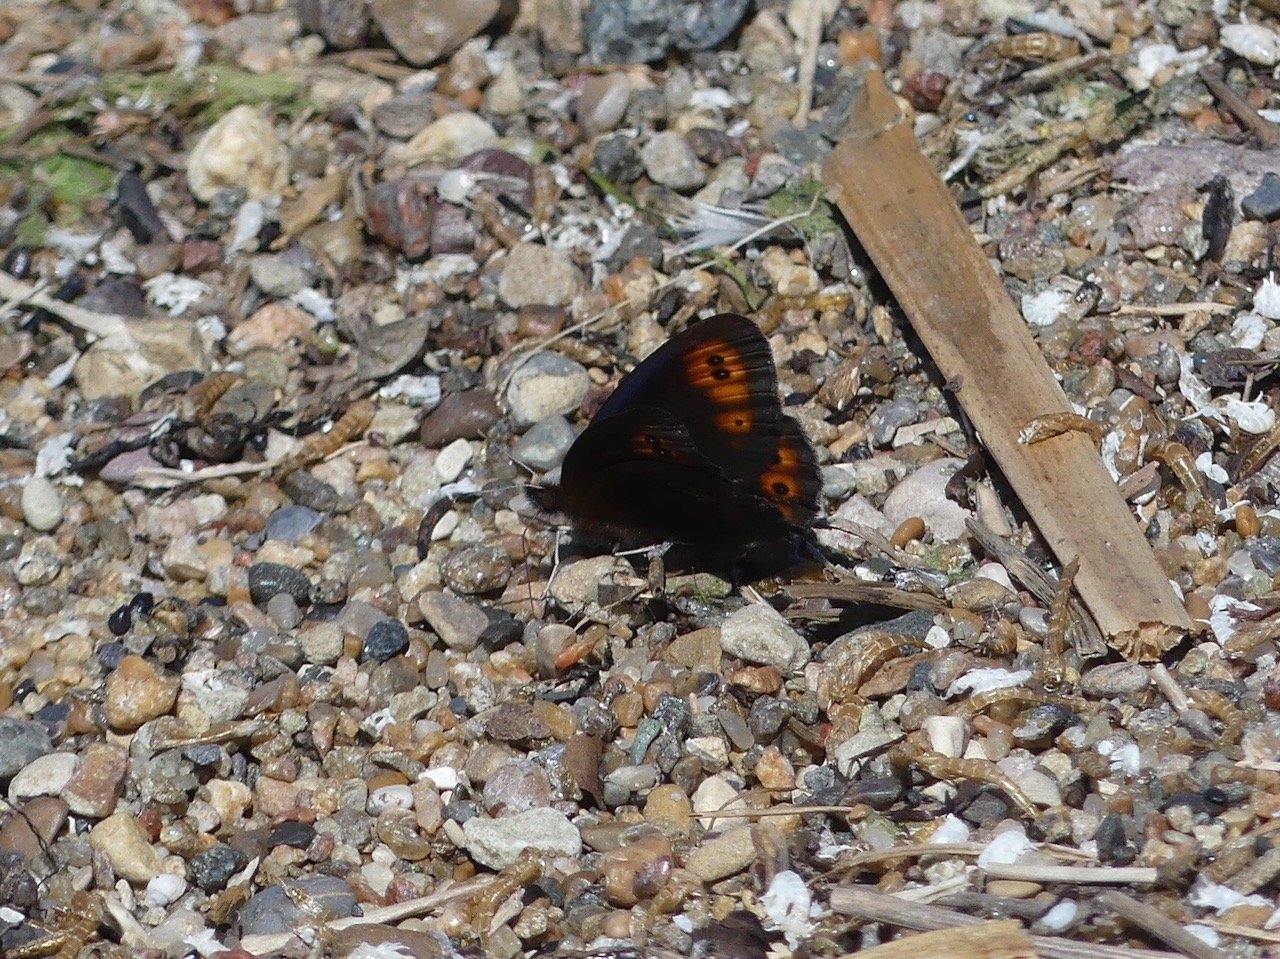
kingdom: Animalia
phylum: Arthropoda
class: Insecta
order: Lepidoptera
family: Nymphalidae
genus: Erebia
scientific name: Erebia epipsodea
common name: Common Alpine
